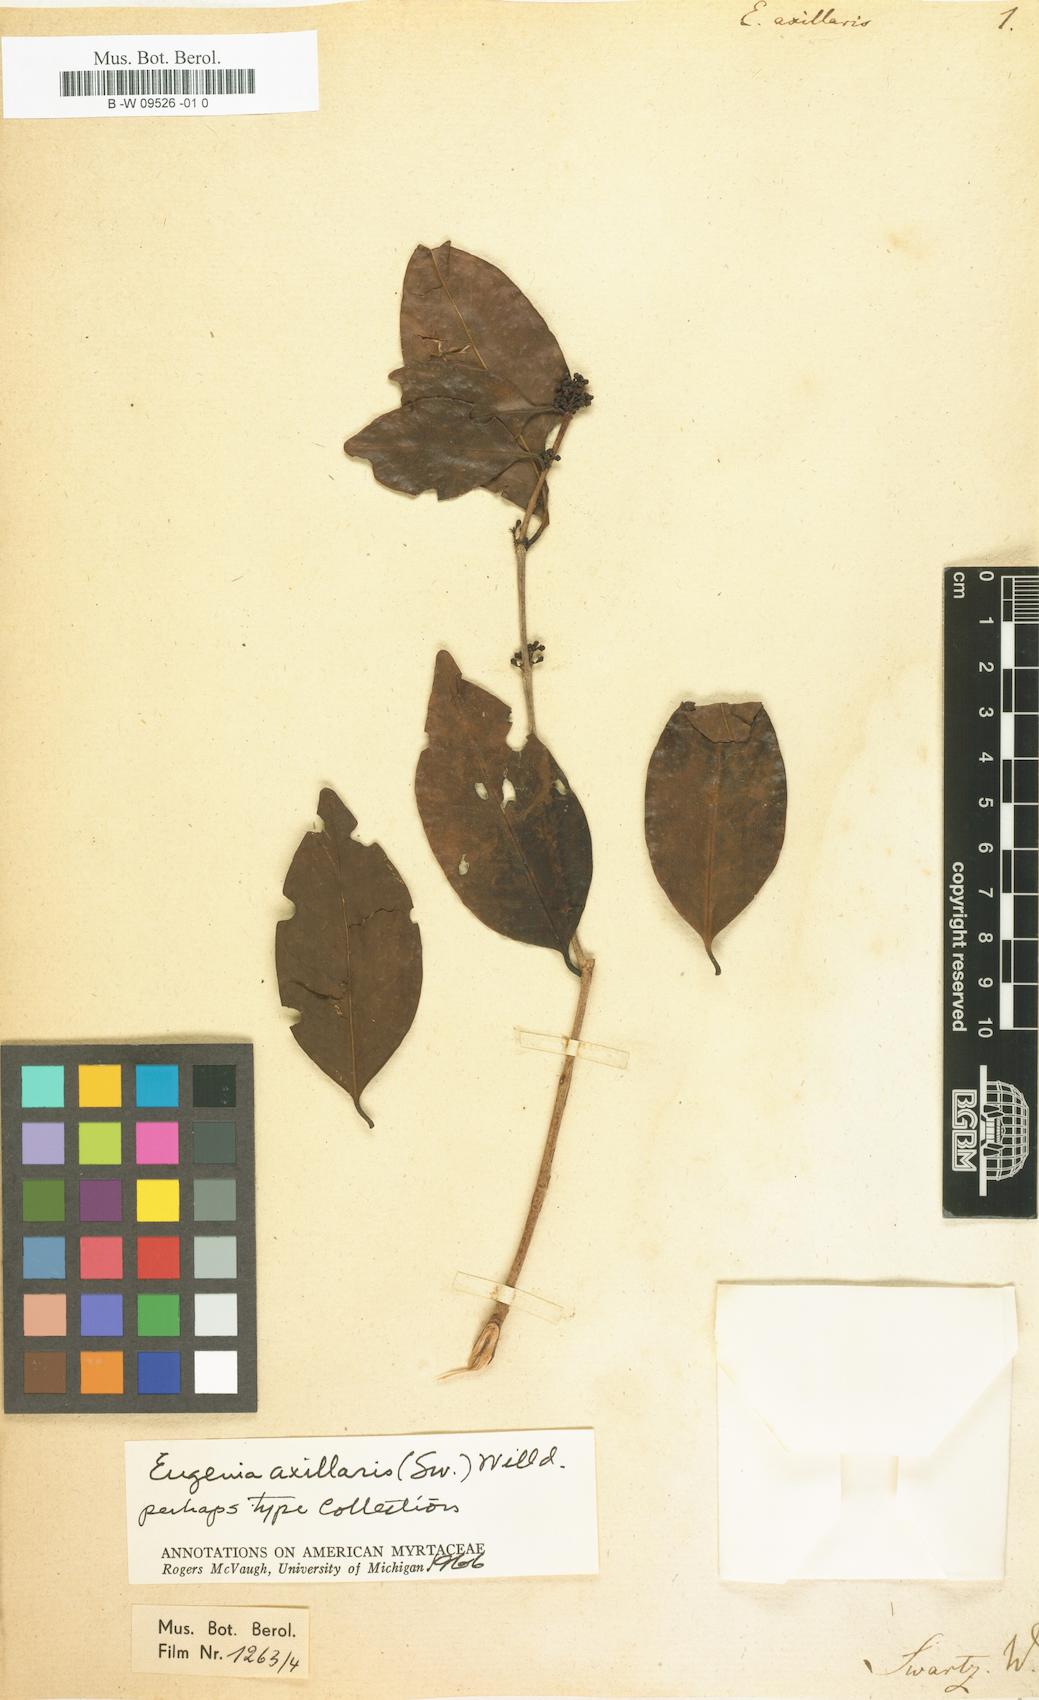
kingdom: Plantae
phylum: Tracheophyta
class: Magnoliopsida
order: Myrtales
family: Myrtaceae
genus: Eugenia
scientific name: Eugenia axillaris
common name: Choaky berry
